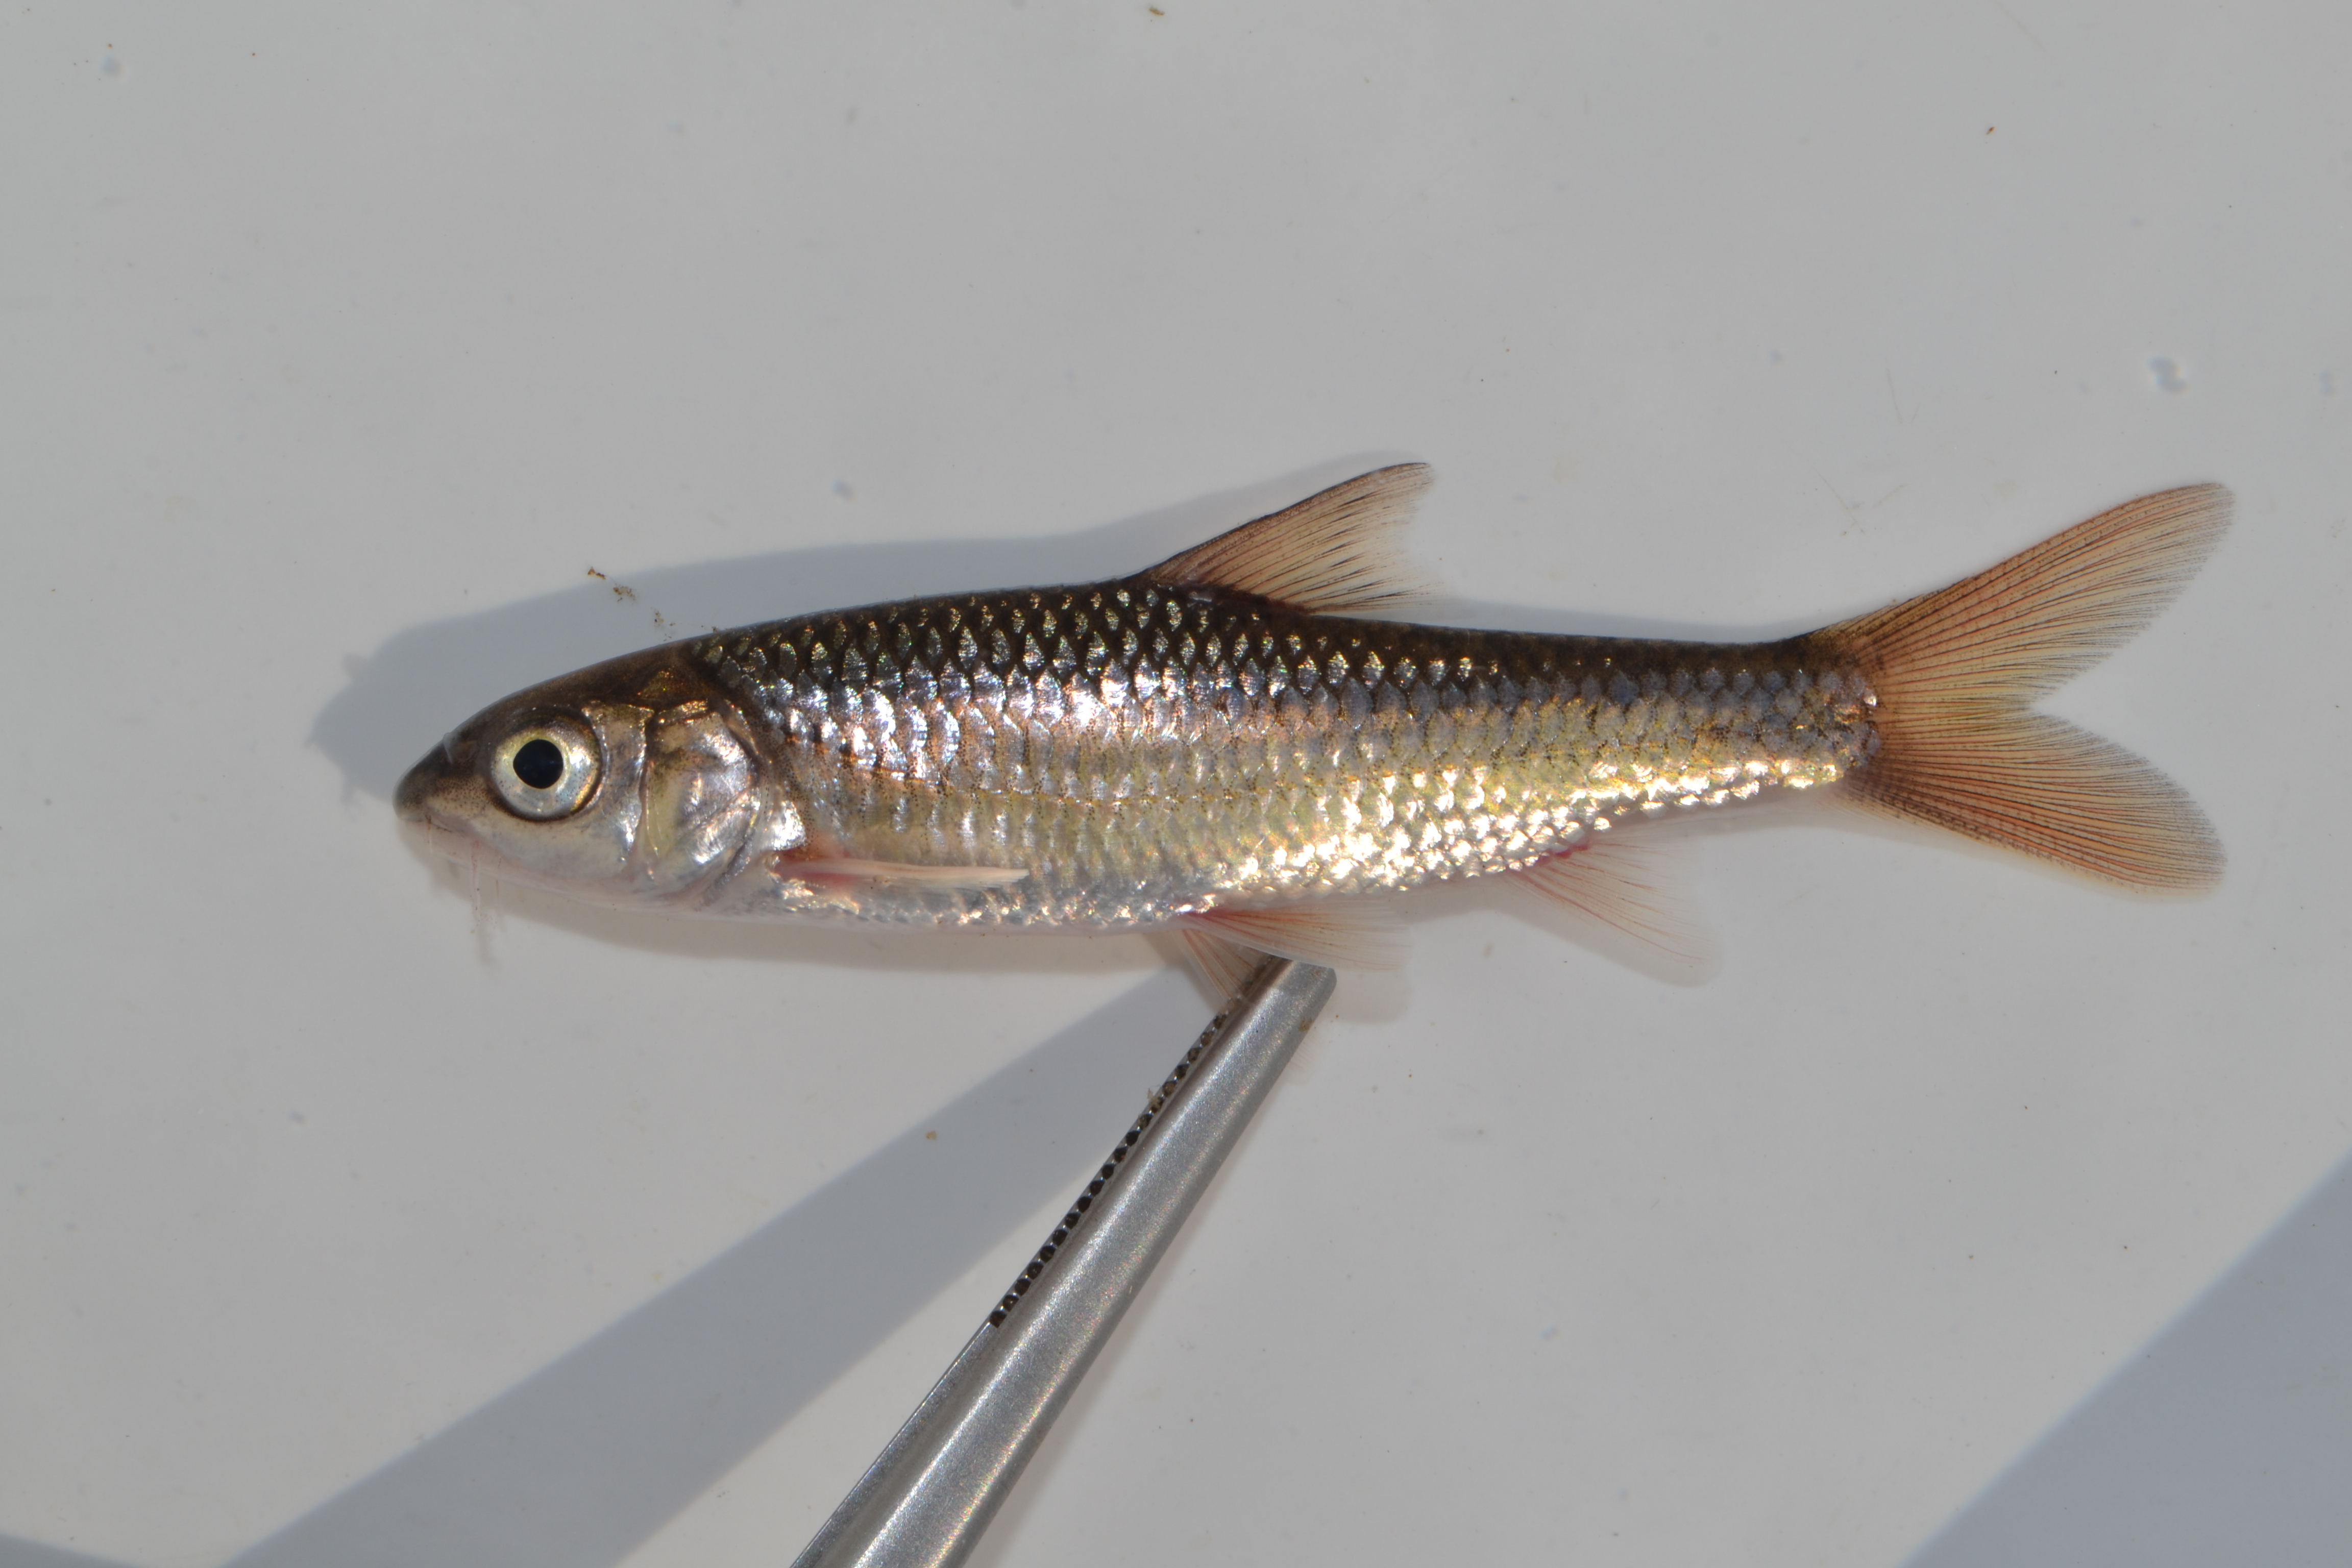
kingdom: Animalia
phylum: Chordata
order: Cypriniformes
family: Cyprinidae
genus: Labeobarbus
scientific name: Labeobarbus natalensis
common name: Scaly
